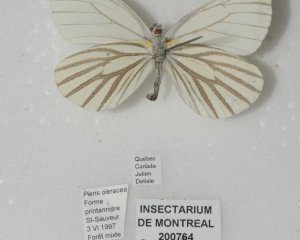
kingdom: Animalia
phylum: Arthropoda
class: Insecta
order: Lepidoptera
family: Pieridae
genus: Pieris
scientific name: Pieris oleracea
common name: Mustard White
